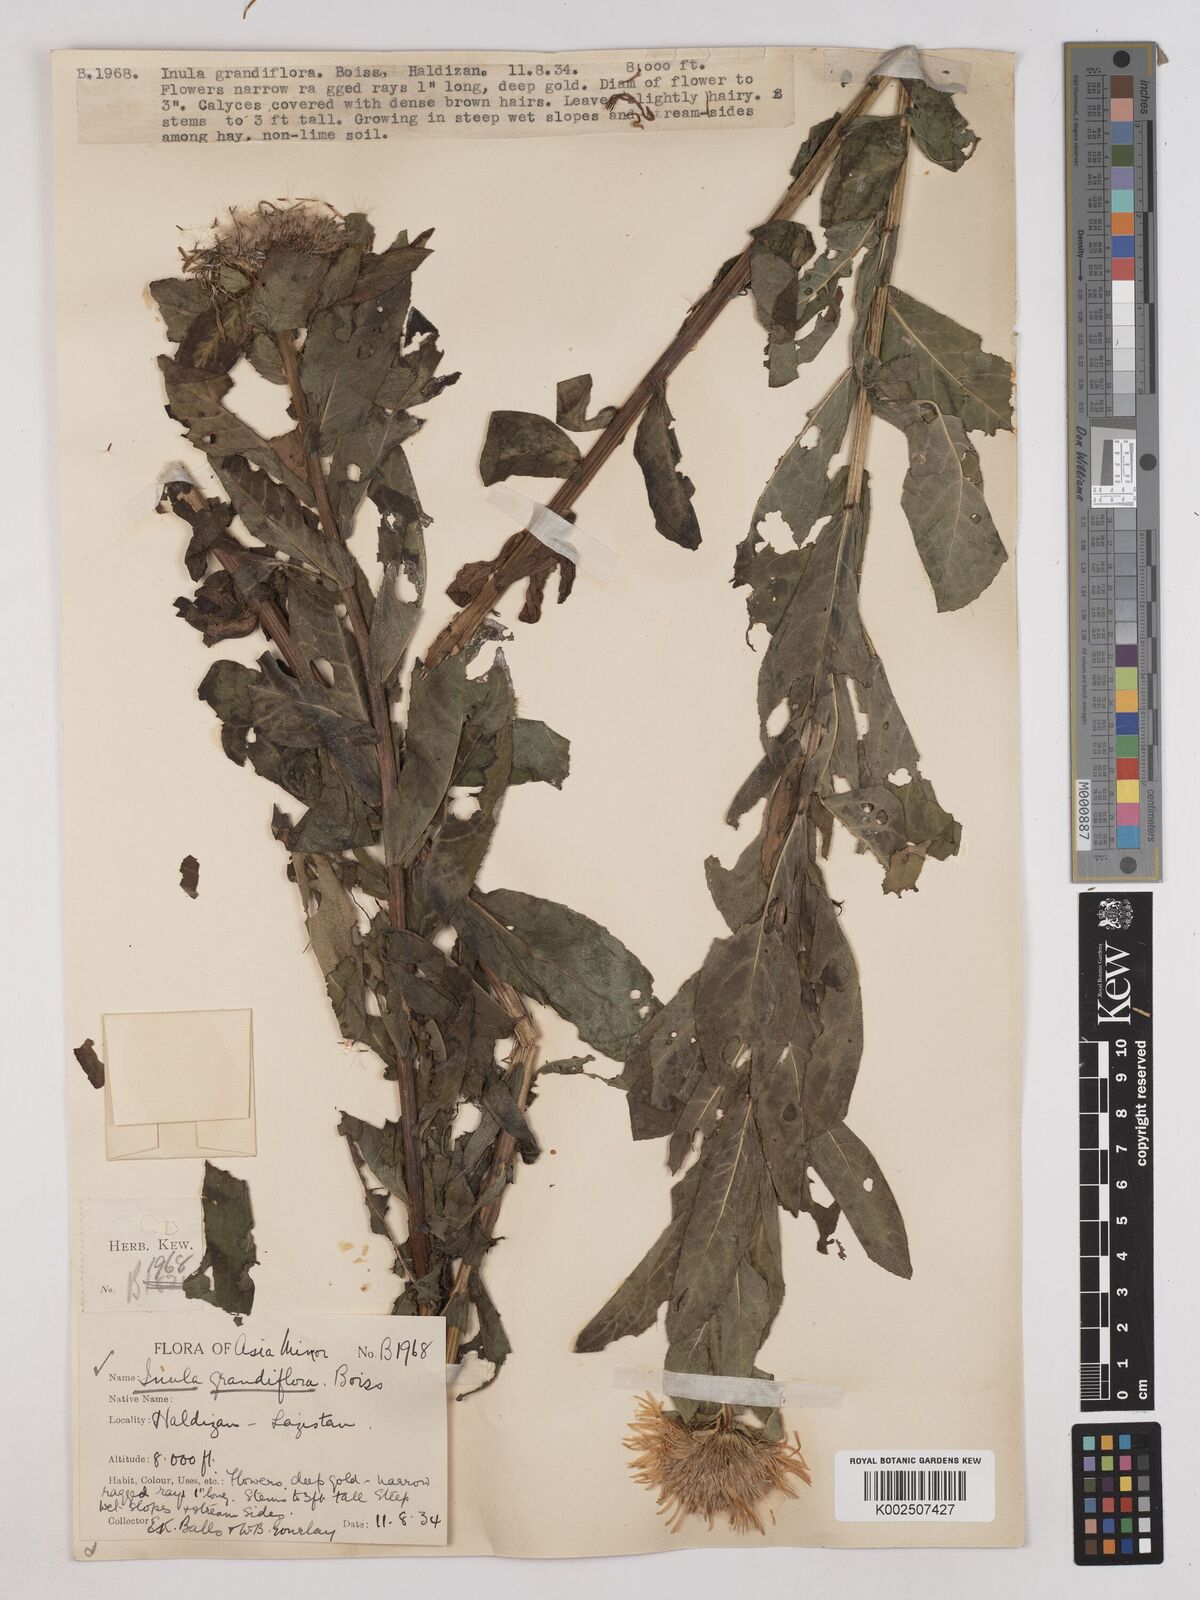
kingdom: Plantae
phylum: Tracheophyta
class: Magnoliopsida
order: Asterales
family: Asteraceae
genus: Pentanema
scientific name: Pentanema orientale
